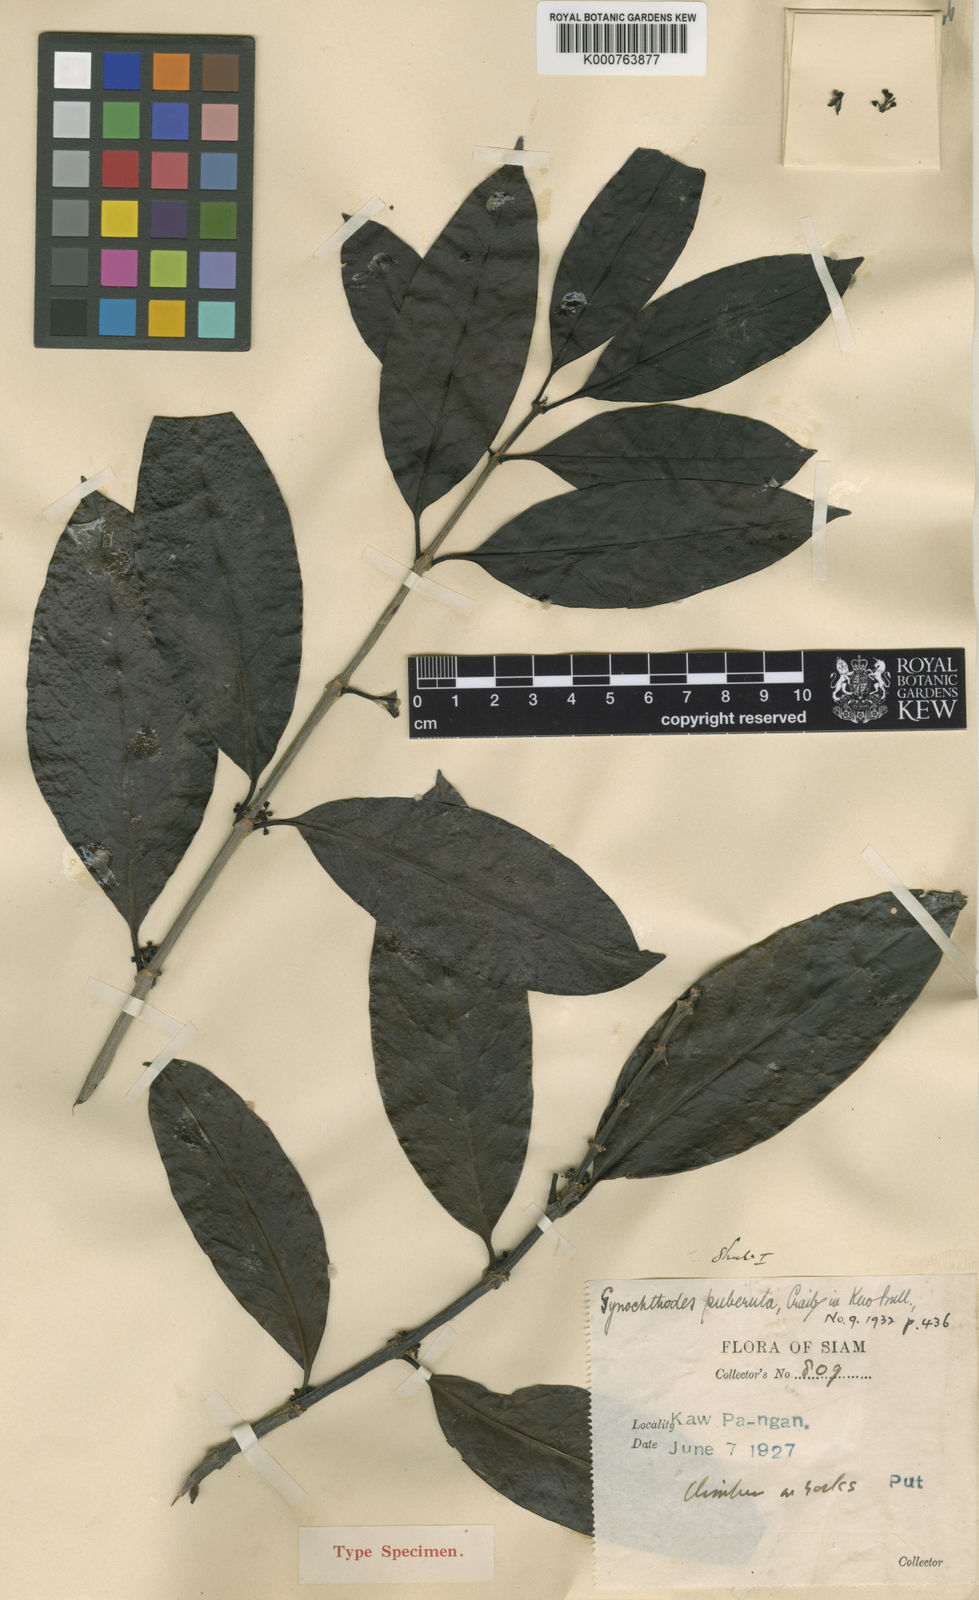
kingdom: Plantae
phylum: Tracheophyta
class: Magnoliopsida
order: Gentianales
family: Rubiaceae
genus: Gynochthodes
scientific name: Gynochthodes puberula
